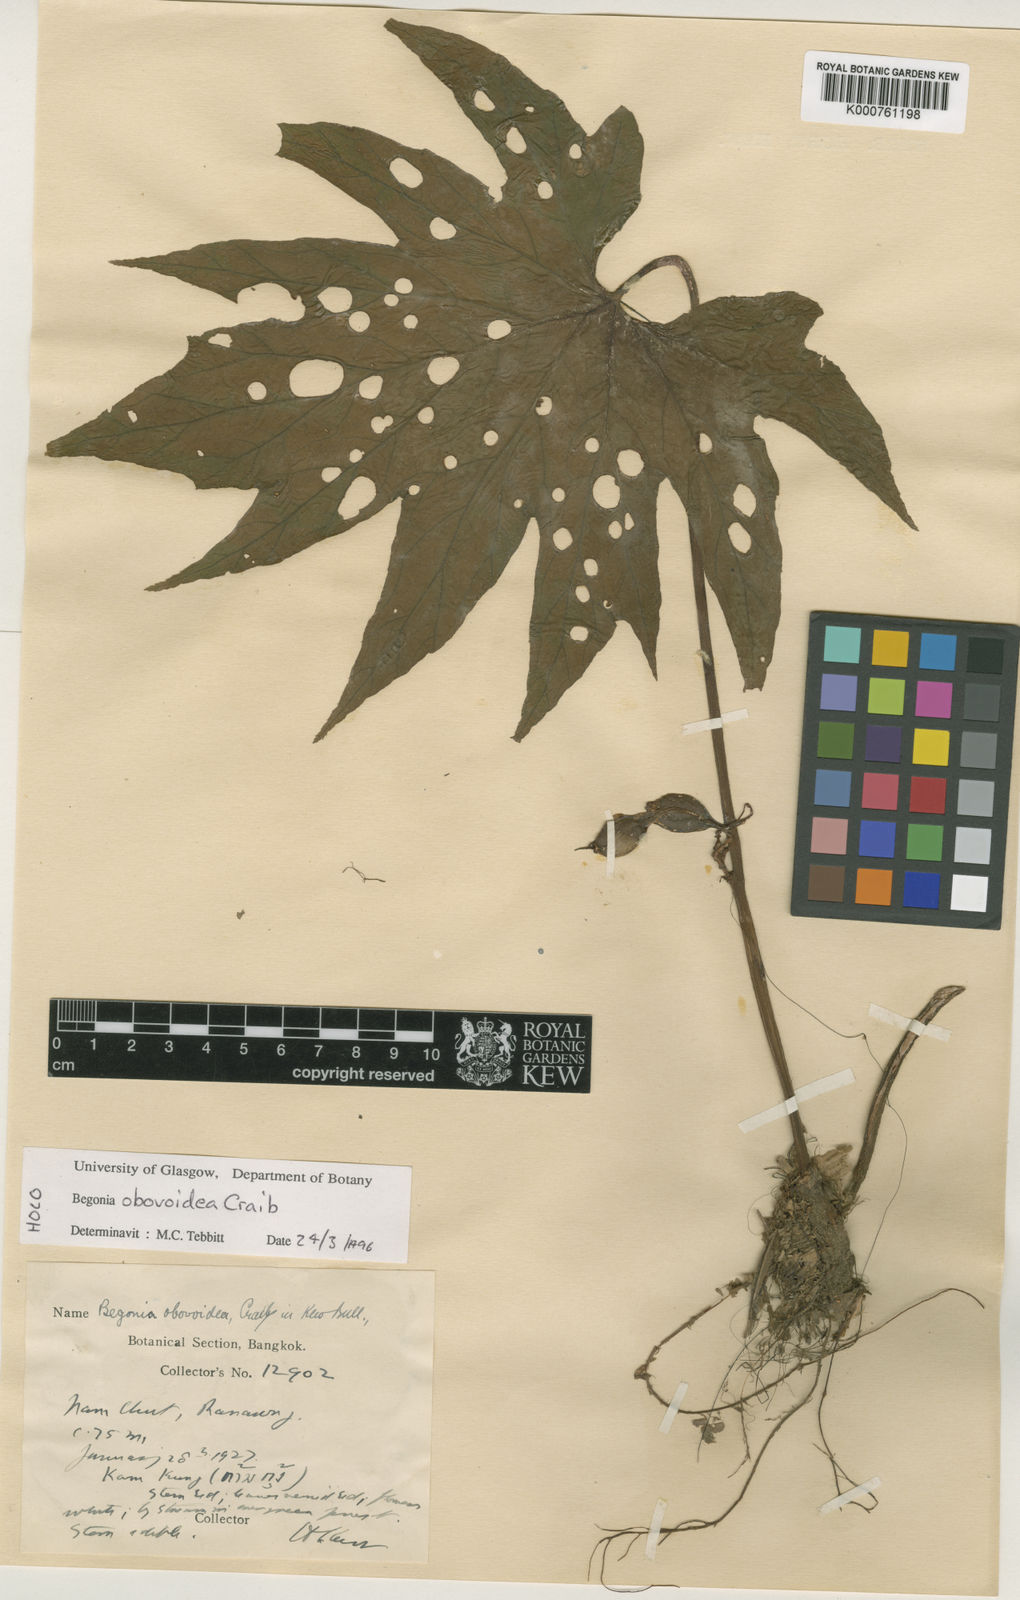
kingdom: Plantae
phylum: Tracheophyta
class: Magnoliopsida
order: Cucurbitales
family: Begoniaceae
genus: Begonia
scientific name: Begonia obovoidea
